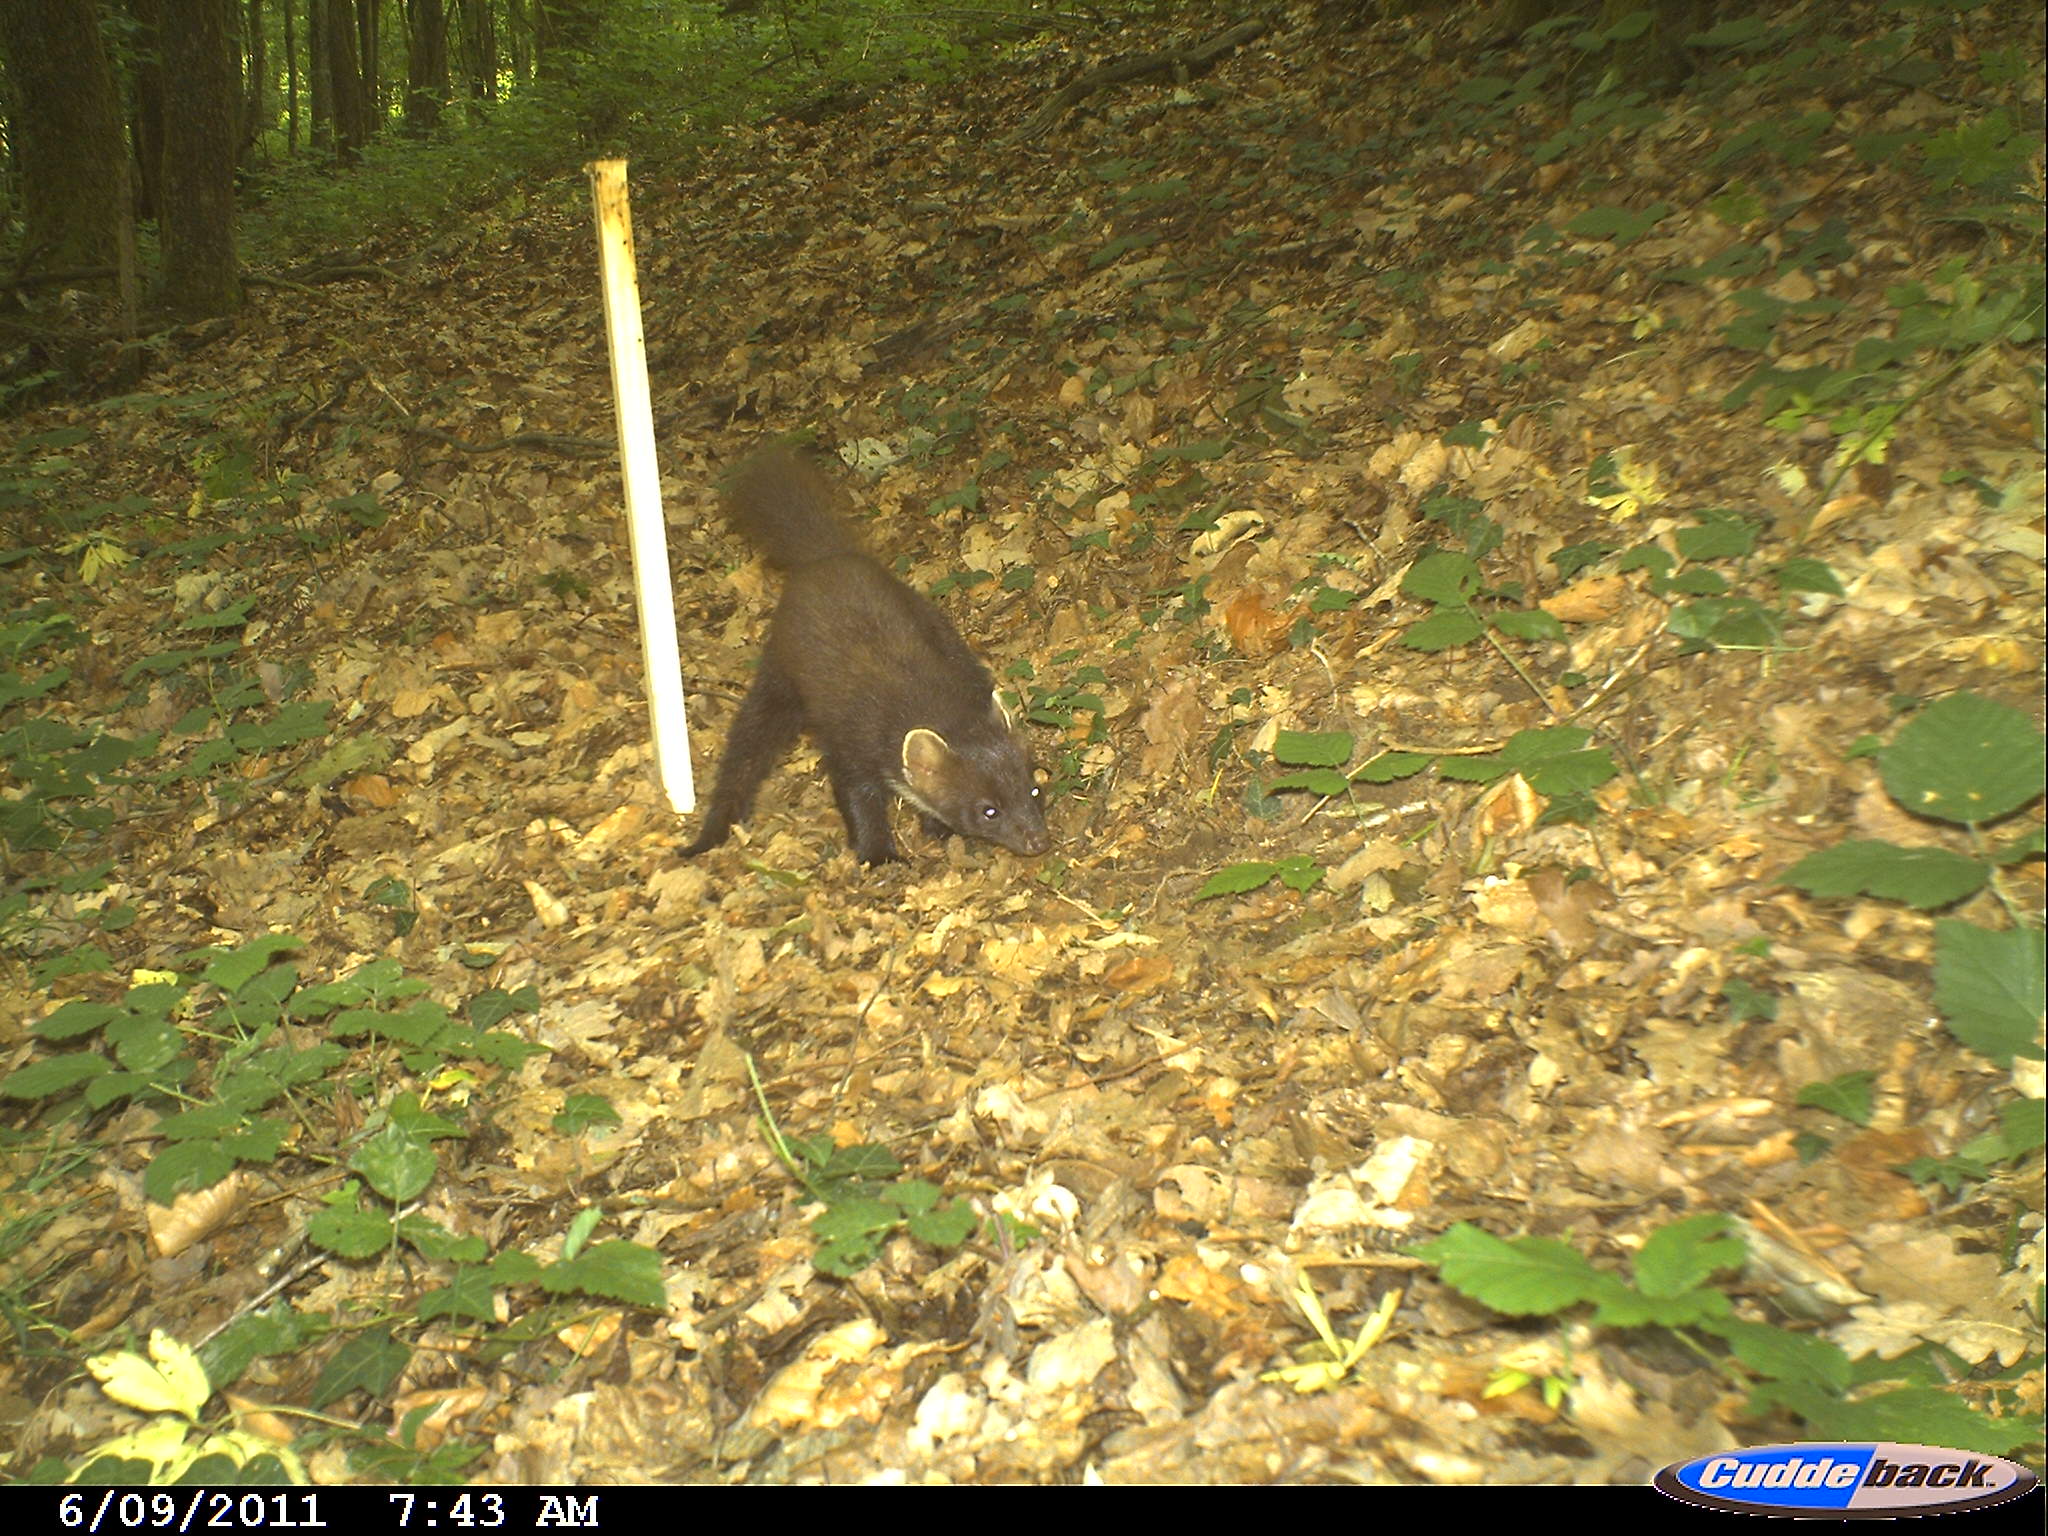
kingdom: Animalia
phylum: Chordata
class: Mammalia
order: Carnivora
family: Mustelidae
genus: Martes
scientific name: Martes martes
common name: European pine marten
